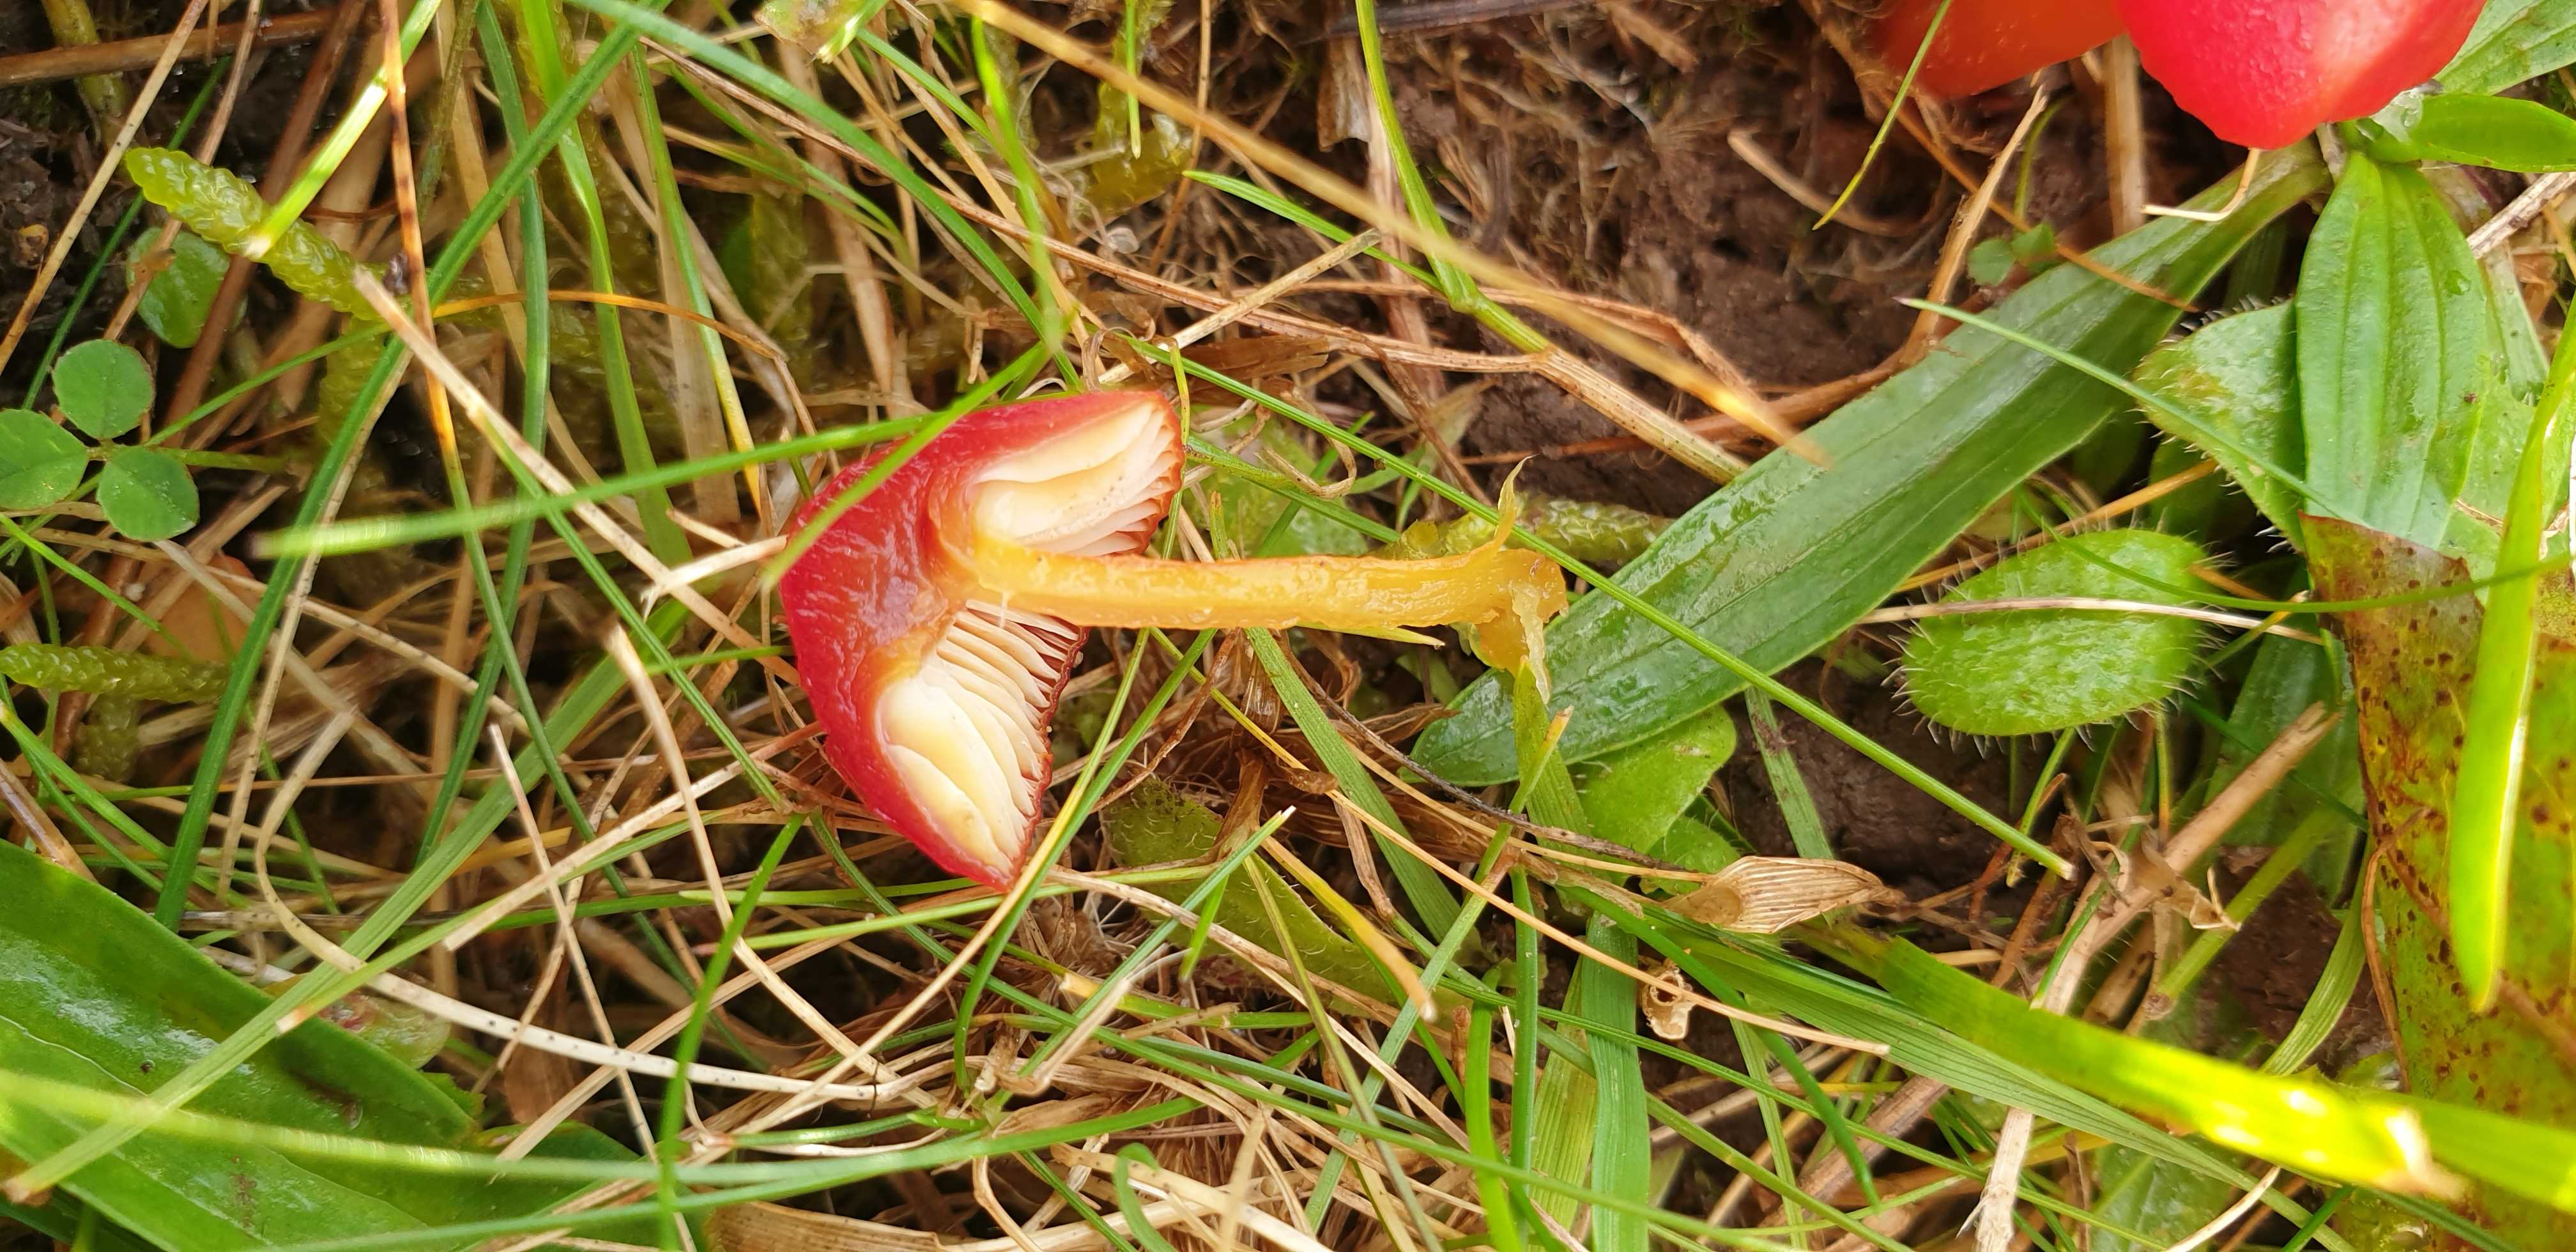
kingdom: Fungi
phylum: Basidiomycota
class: Agaricomycetes
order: Agaricales
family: Hygrophoraceae
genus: Hygrocybe
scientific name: Hygrocybe helobia
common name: hvidløgs-vokshat
